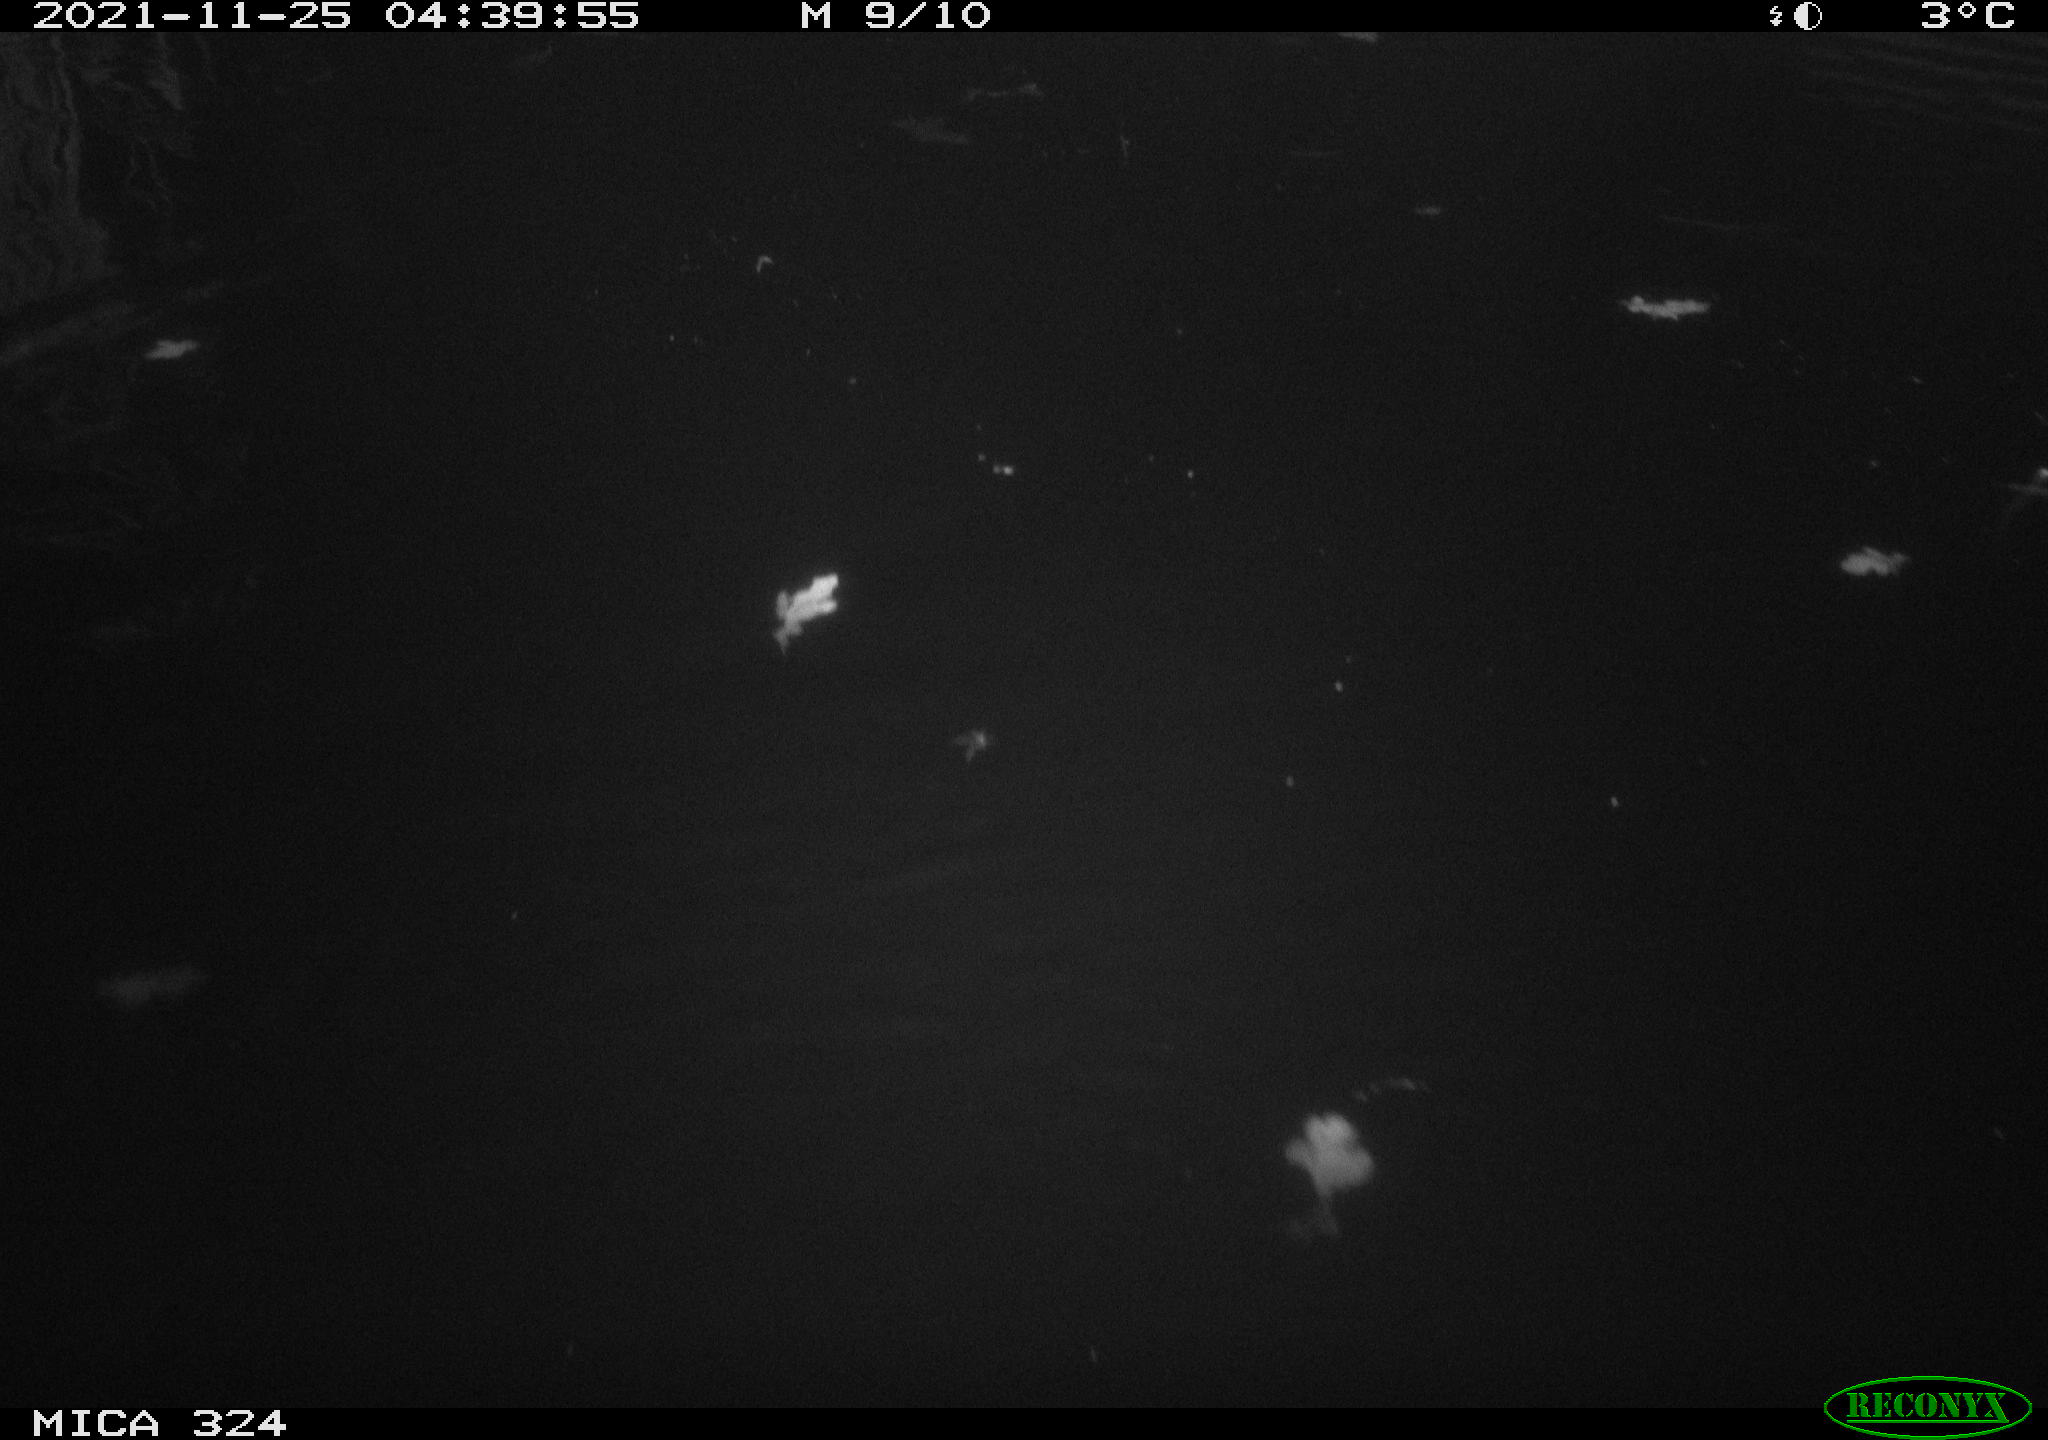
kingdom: Animalia
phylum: Chordata
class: Mammalia
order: Rodentia
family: Cricetidae
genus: Ondatra
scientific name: Ondatra zibethicus
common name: Muskrat
